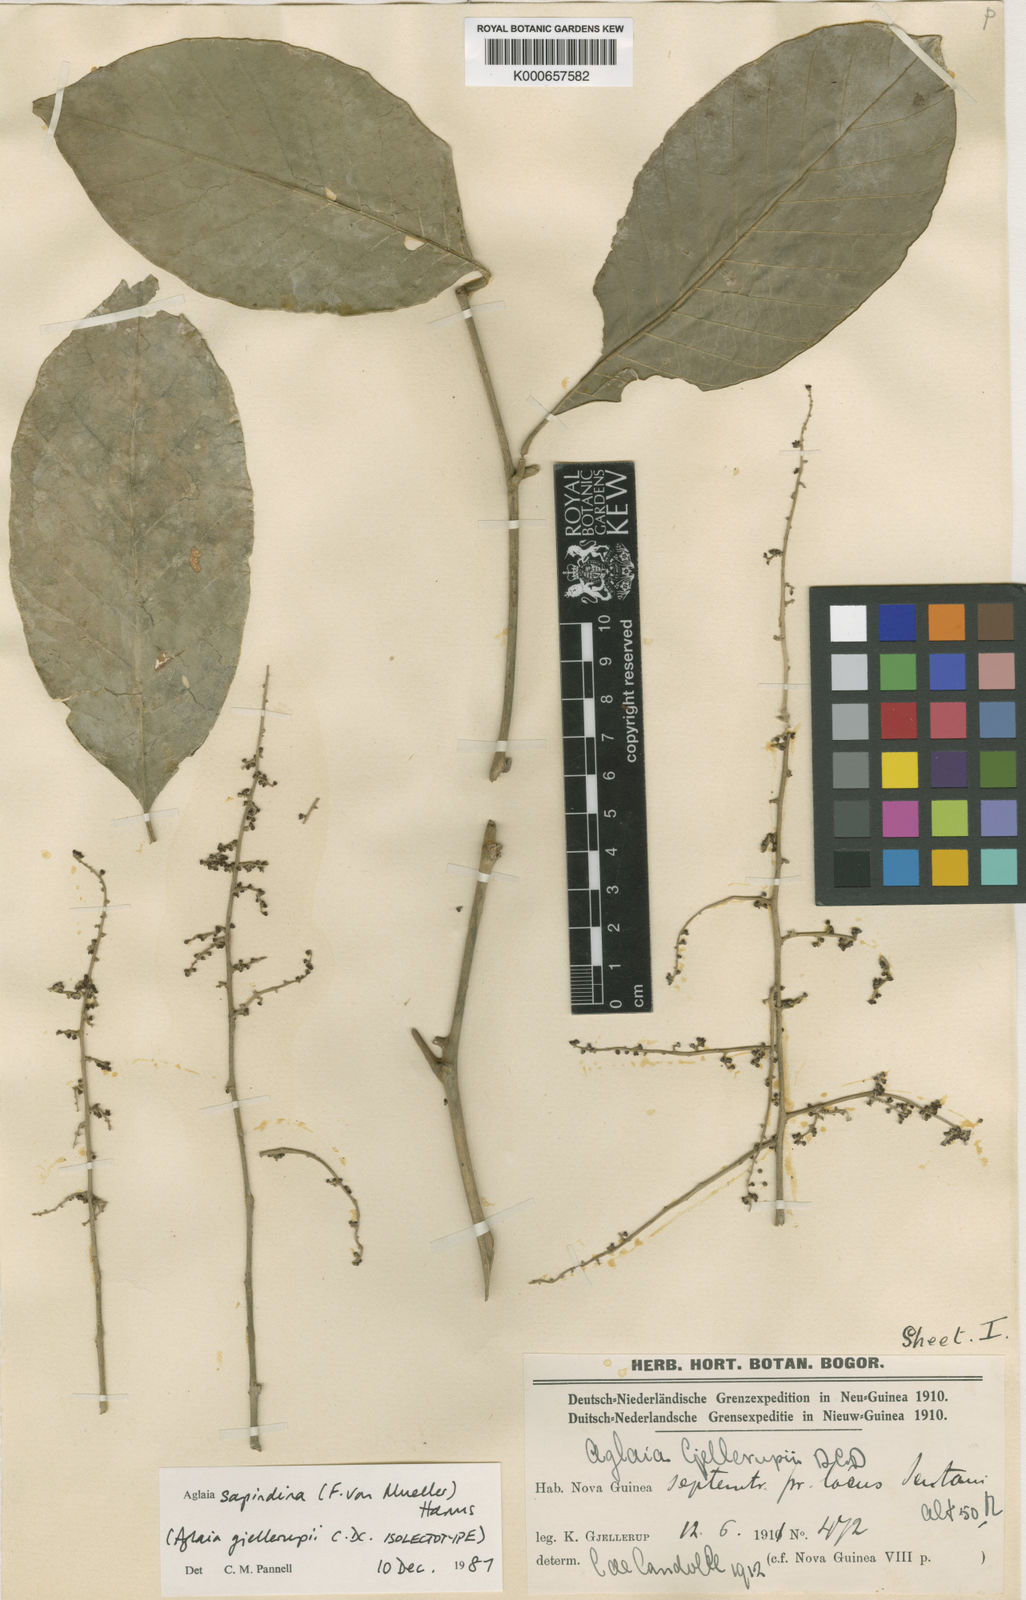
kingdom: Plantae
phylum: Tracheophyta
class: Magnoliopsida
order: Sapindales
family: Meliaceae
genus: Aglaia
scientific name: Aglaia sapindina
